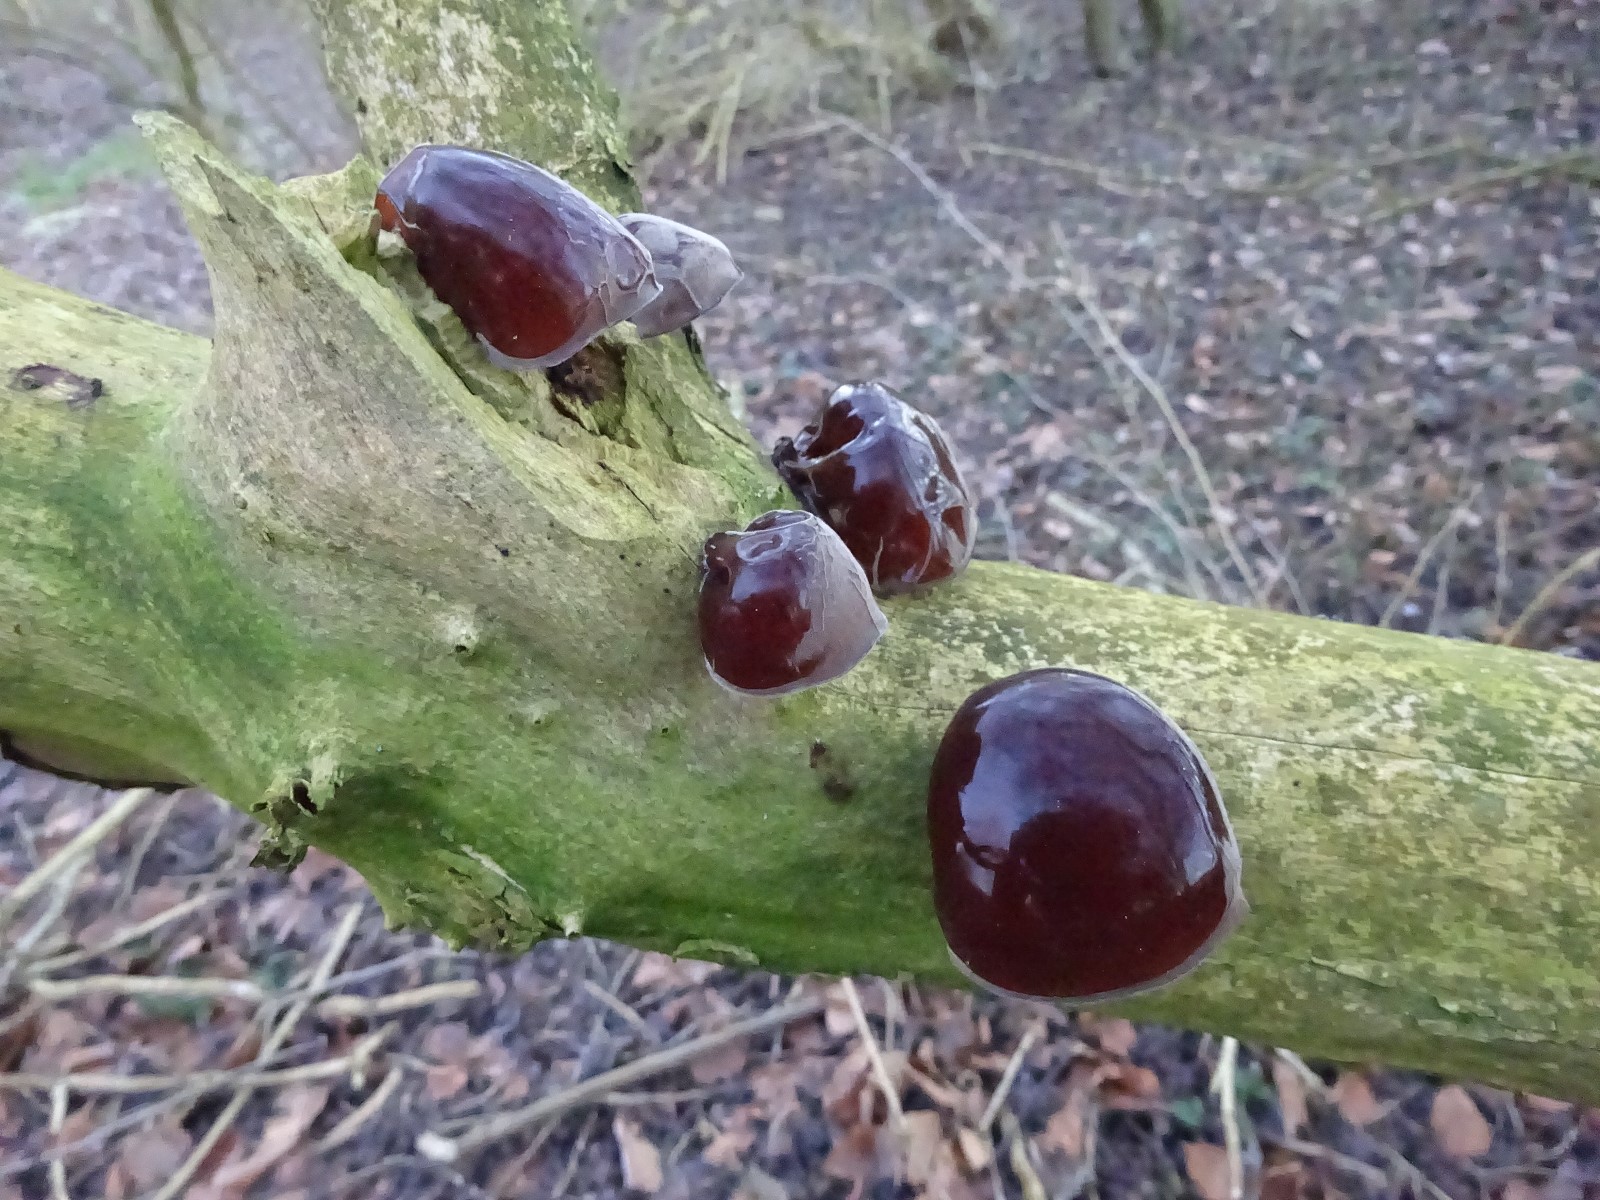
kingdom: Fungi
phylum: Basidiomycota
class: Agaricomycetes
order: Auriculariales
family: Auriculariaceae
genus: Auricularia
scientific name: Auricularia auricula-judae
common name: almindelig judasøre
